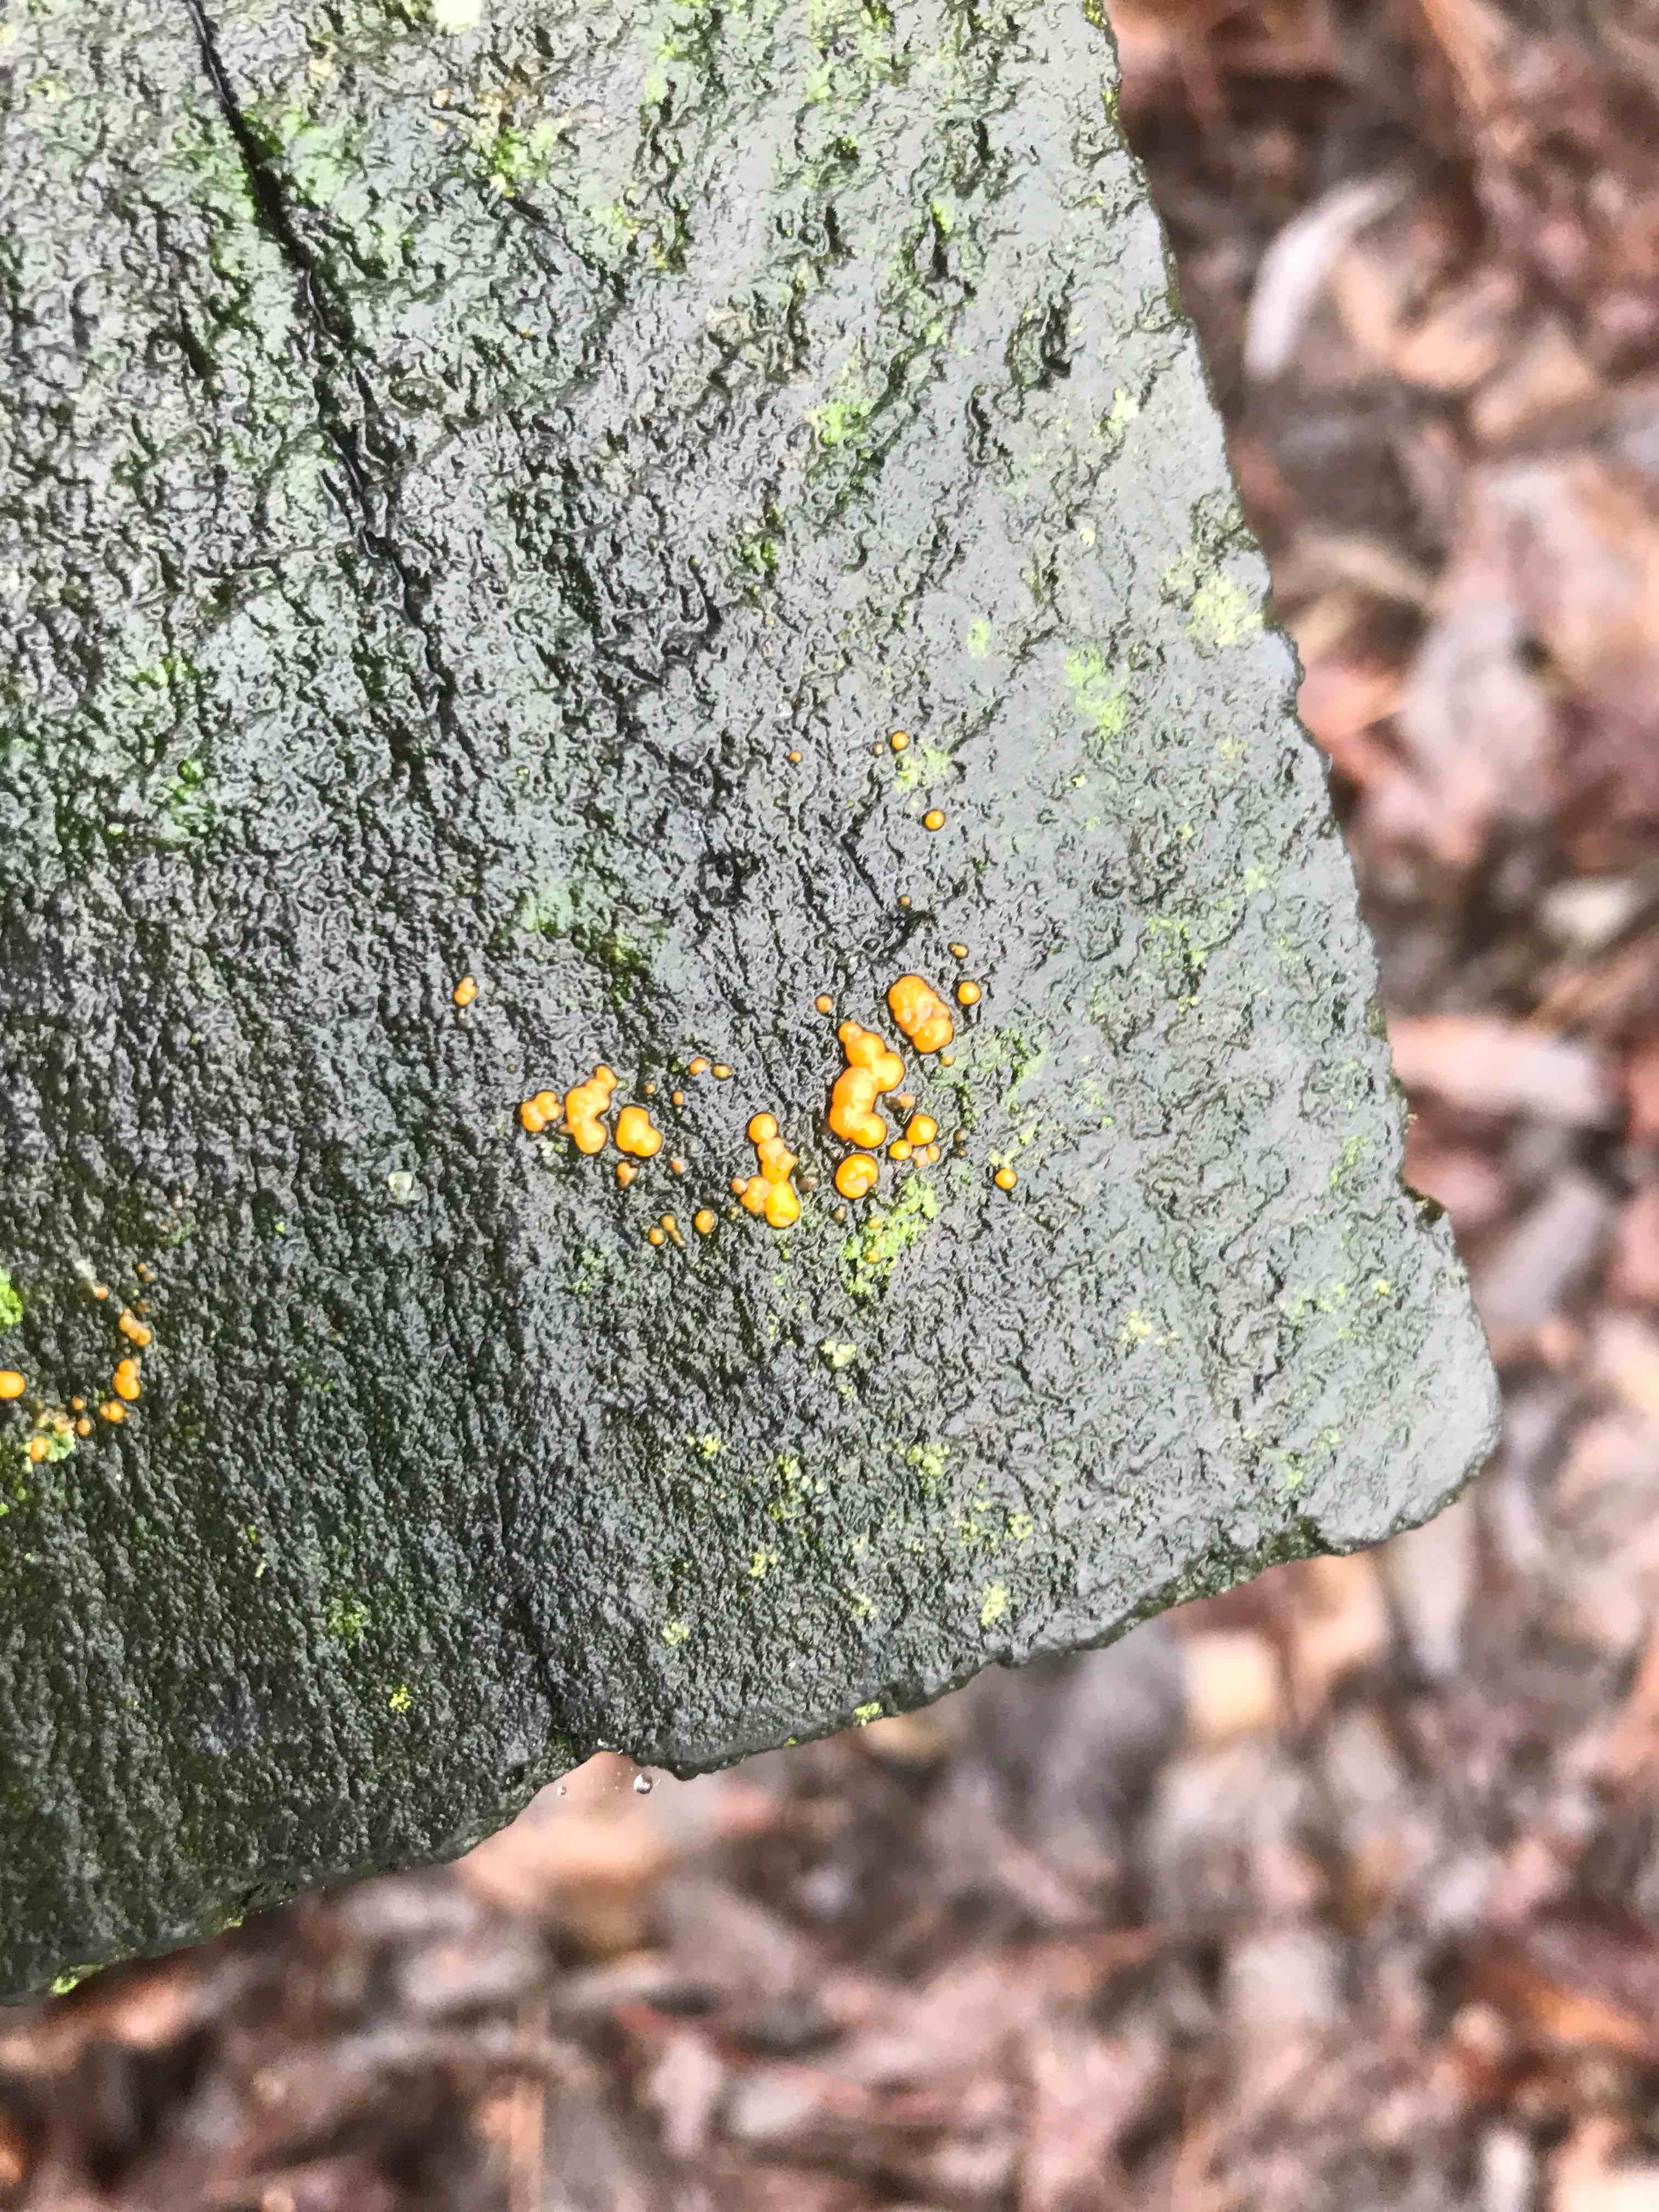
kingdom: Fungi
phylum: Basidiomycota
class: Dacrymycetes
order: Dacrymycetales
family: Dacrymycetaceae
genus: Dacrymyces
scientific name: Dacrymyces stillatus
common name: almindelig tåresvamp
